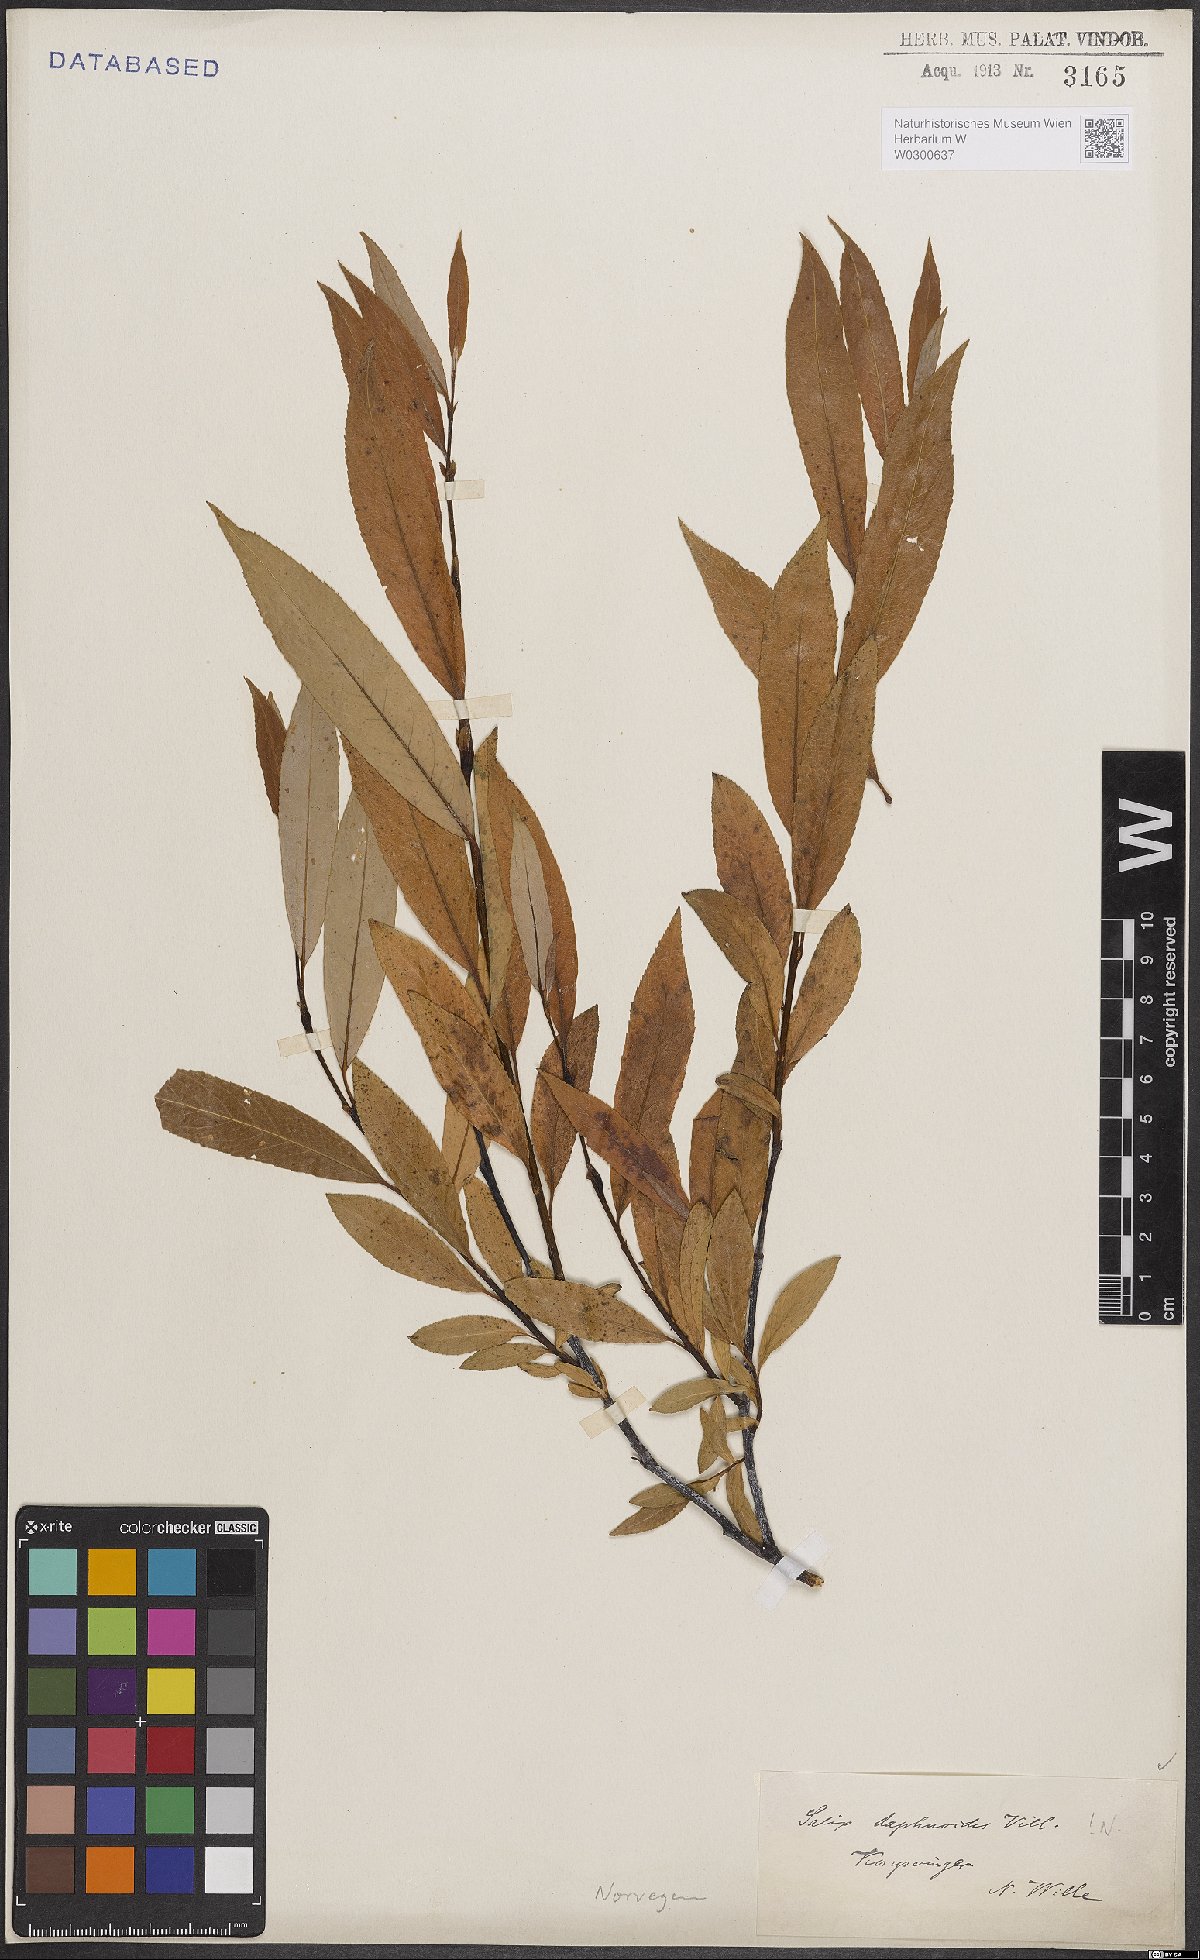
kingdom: Plantae
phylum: Tracheophyta
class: Magnoliopsida
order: Malpighiales
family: Salicaceae
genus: Salix
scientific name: Salix daphnoides
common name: European violet-willow
